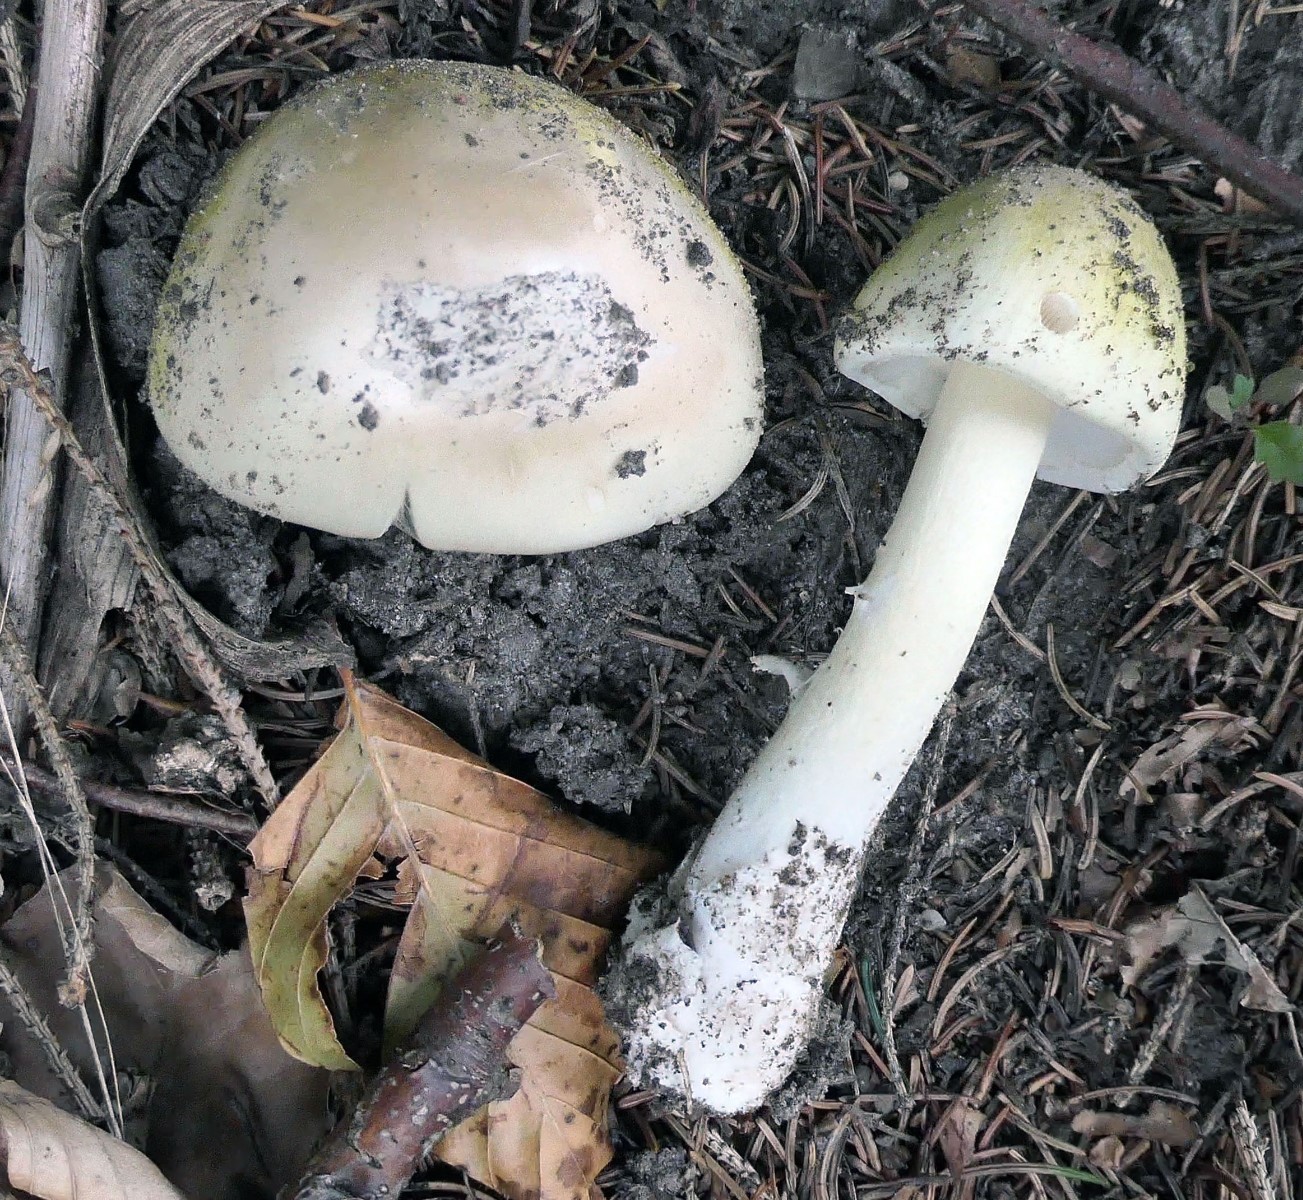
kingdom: Fungi
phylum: Basidiomycota
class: Agaricomycetes
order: Agaricales
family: Amanitaceae
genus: Amanita
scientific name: Amanita phalloides
